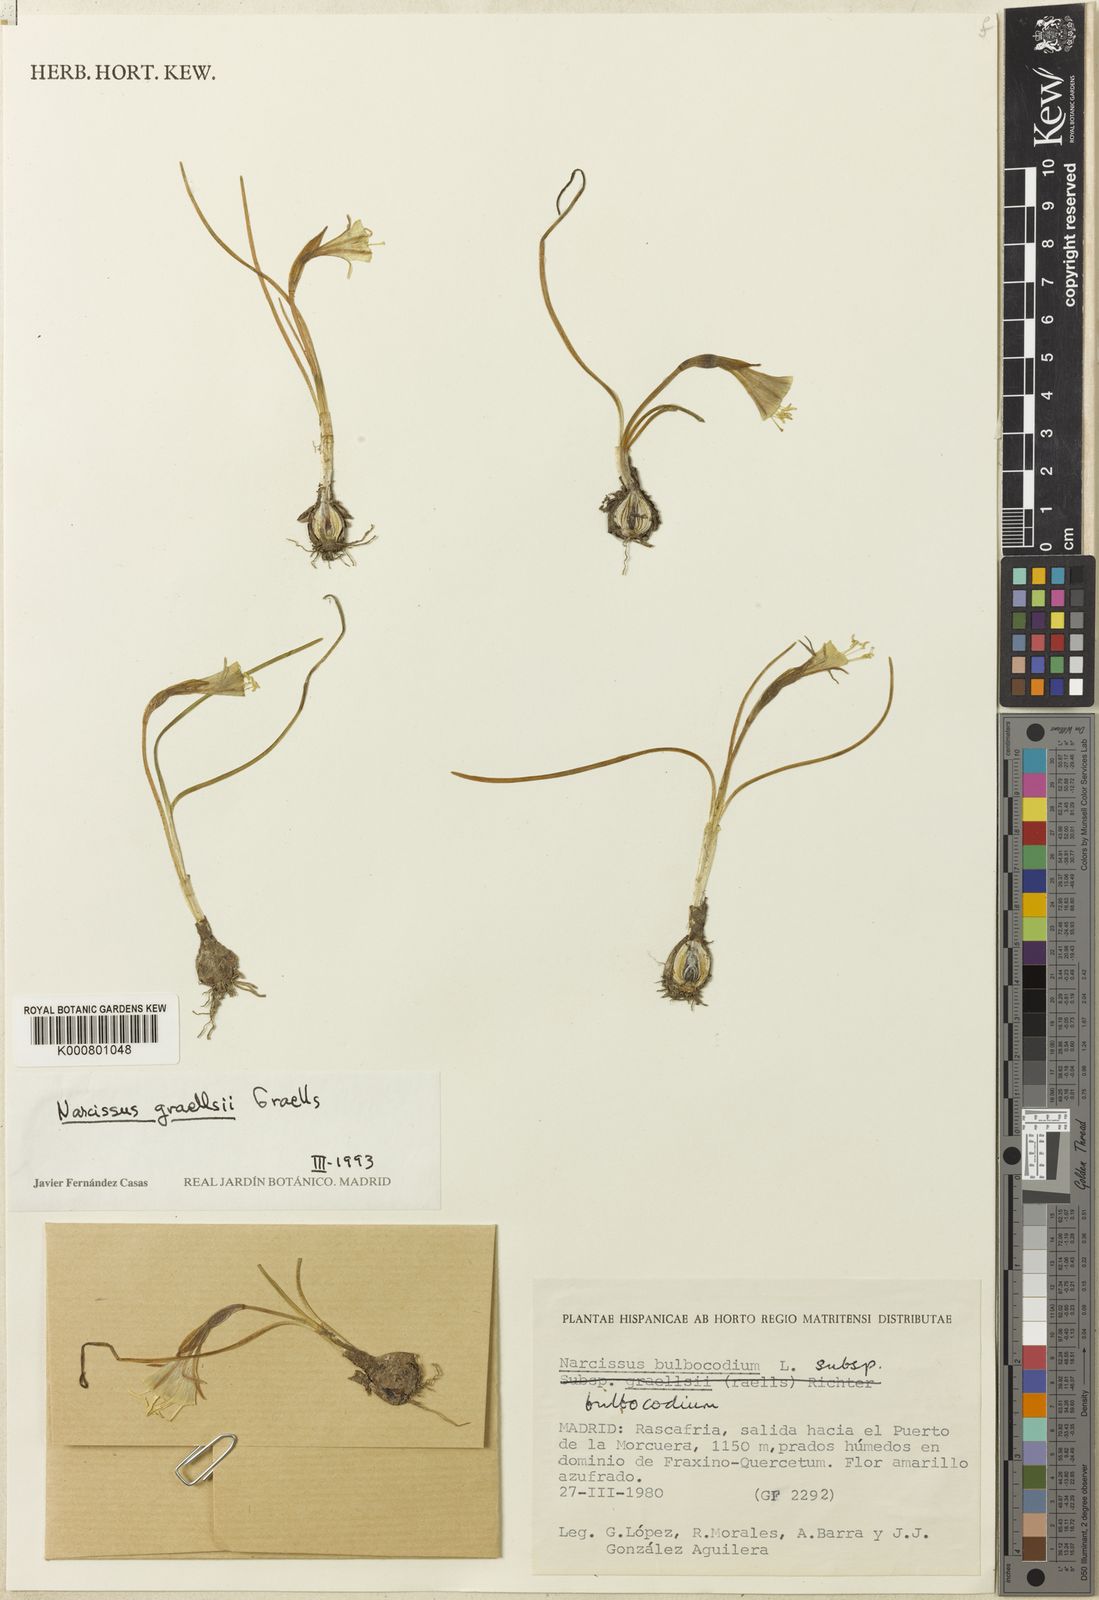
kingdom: Plantae
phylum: Tracheophyta
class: Liliopsida
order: Asparagales
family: Amaryllidaceae
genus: Narcissus
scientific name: Narcissus bulbocodium
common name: Hoop-petticoat daffodil
